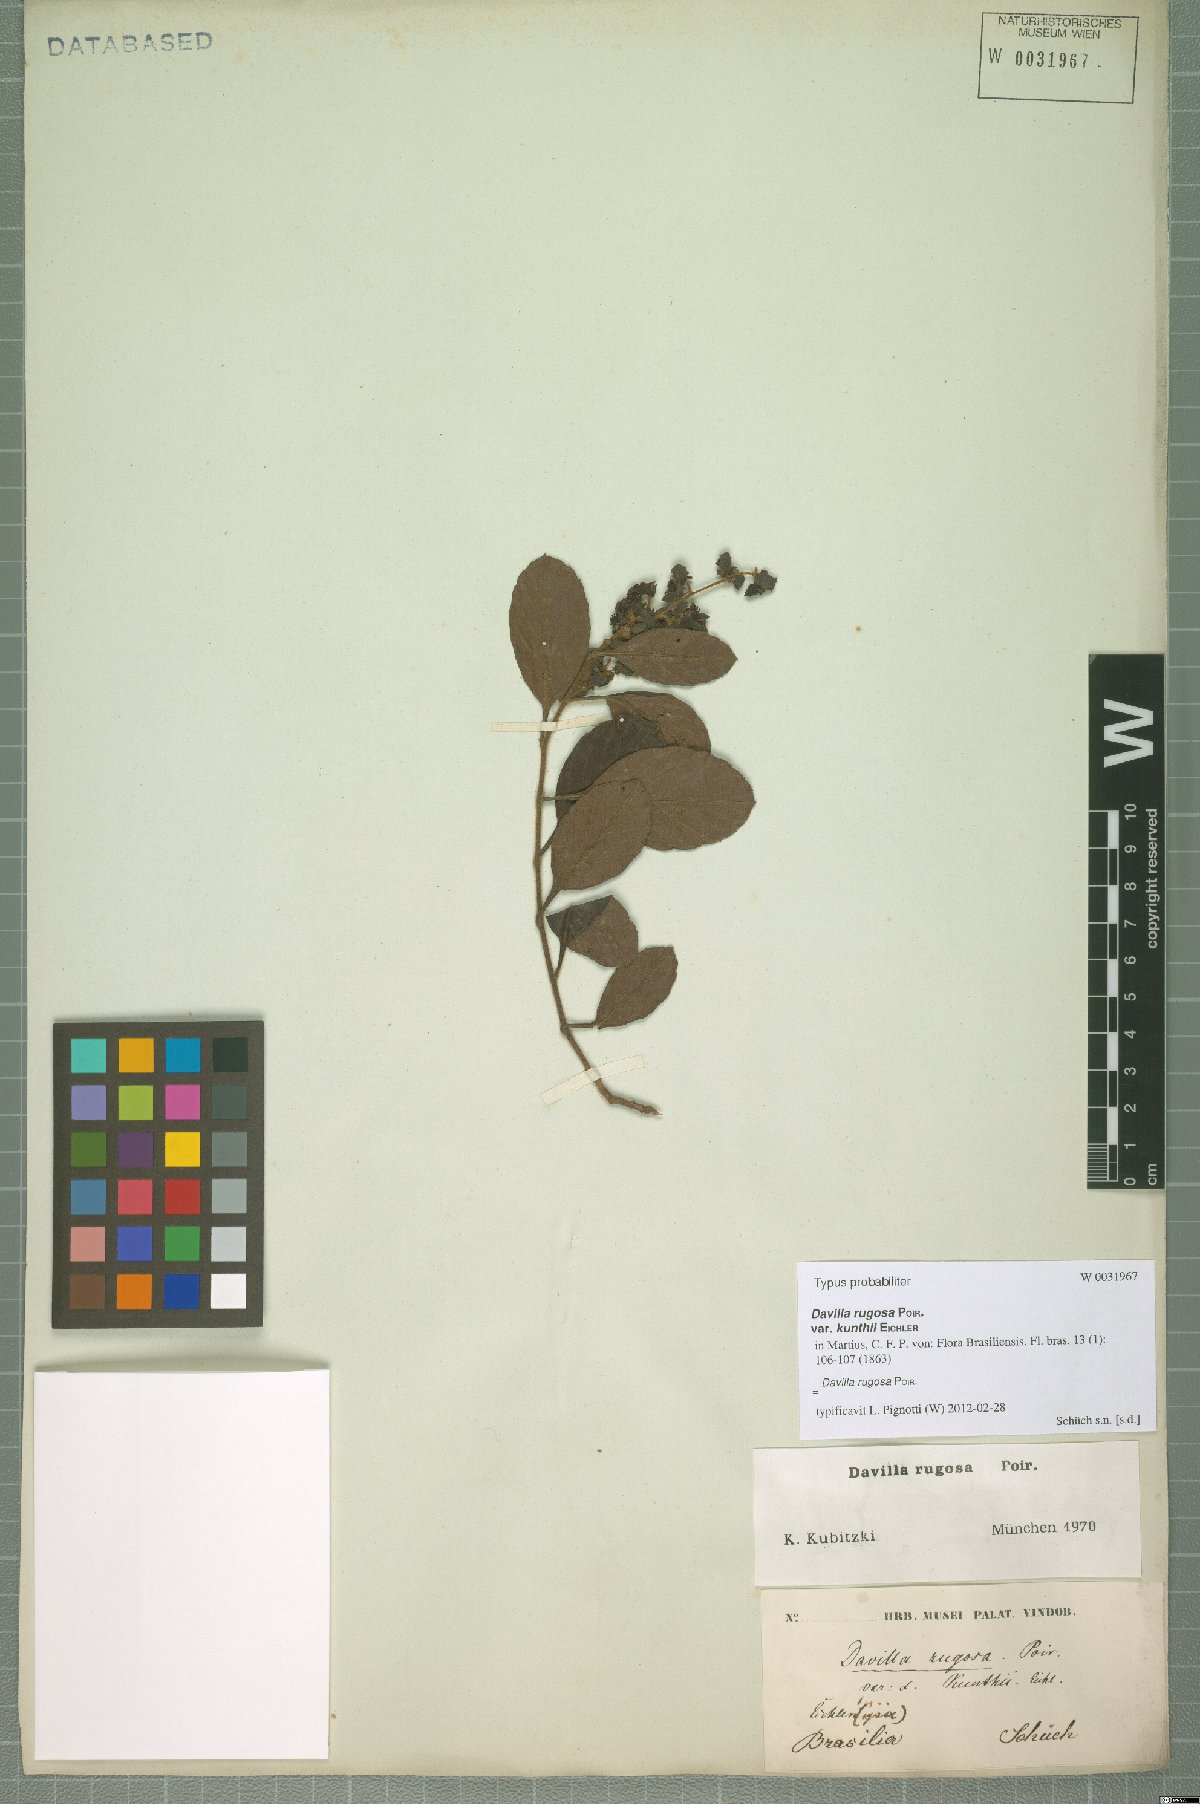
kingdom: Plantae
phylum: Tracheophyta
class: Magnoliopsida
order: Dilleniales
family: Dilleniaceae
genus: Davilla
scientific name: Davilla rugosa
